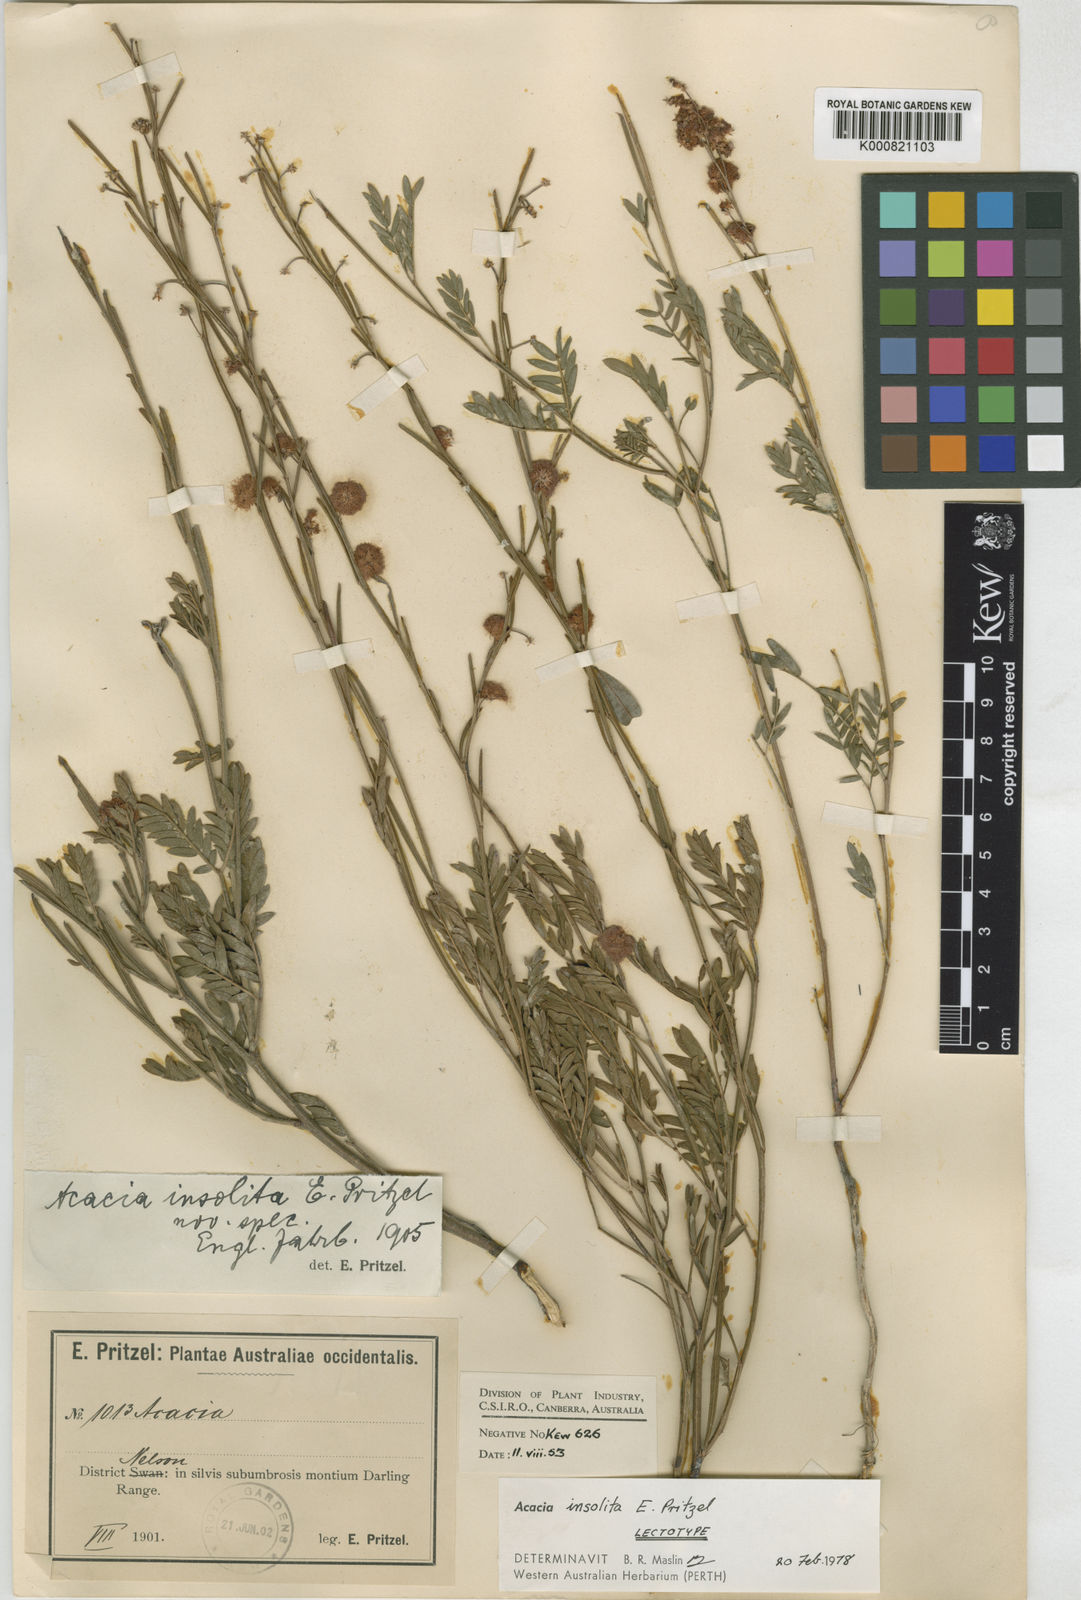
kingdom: Plantae
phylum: Tracheophyta
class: Magnoliopsida
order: Fabales
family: Fabaceae
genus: Acacia
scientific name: Acacia insolita
